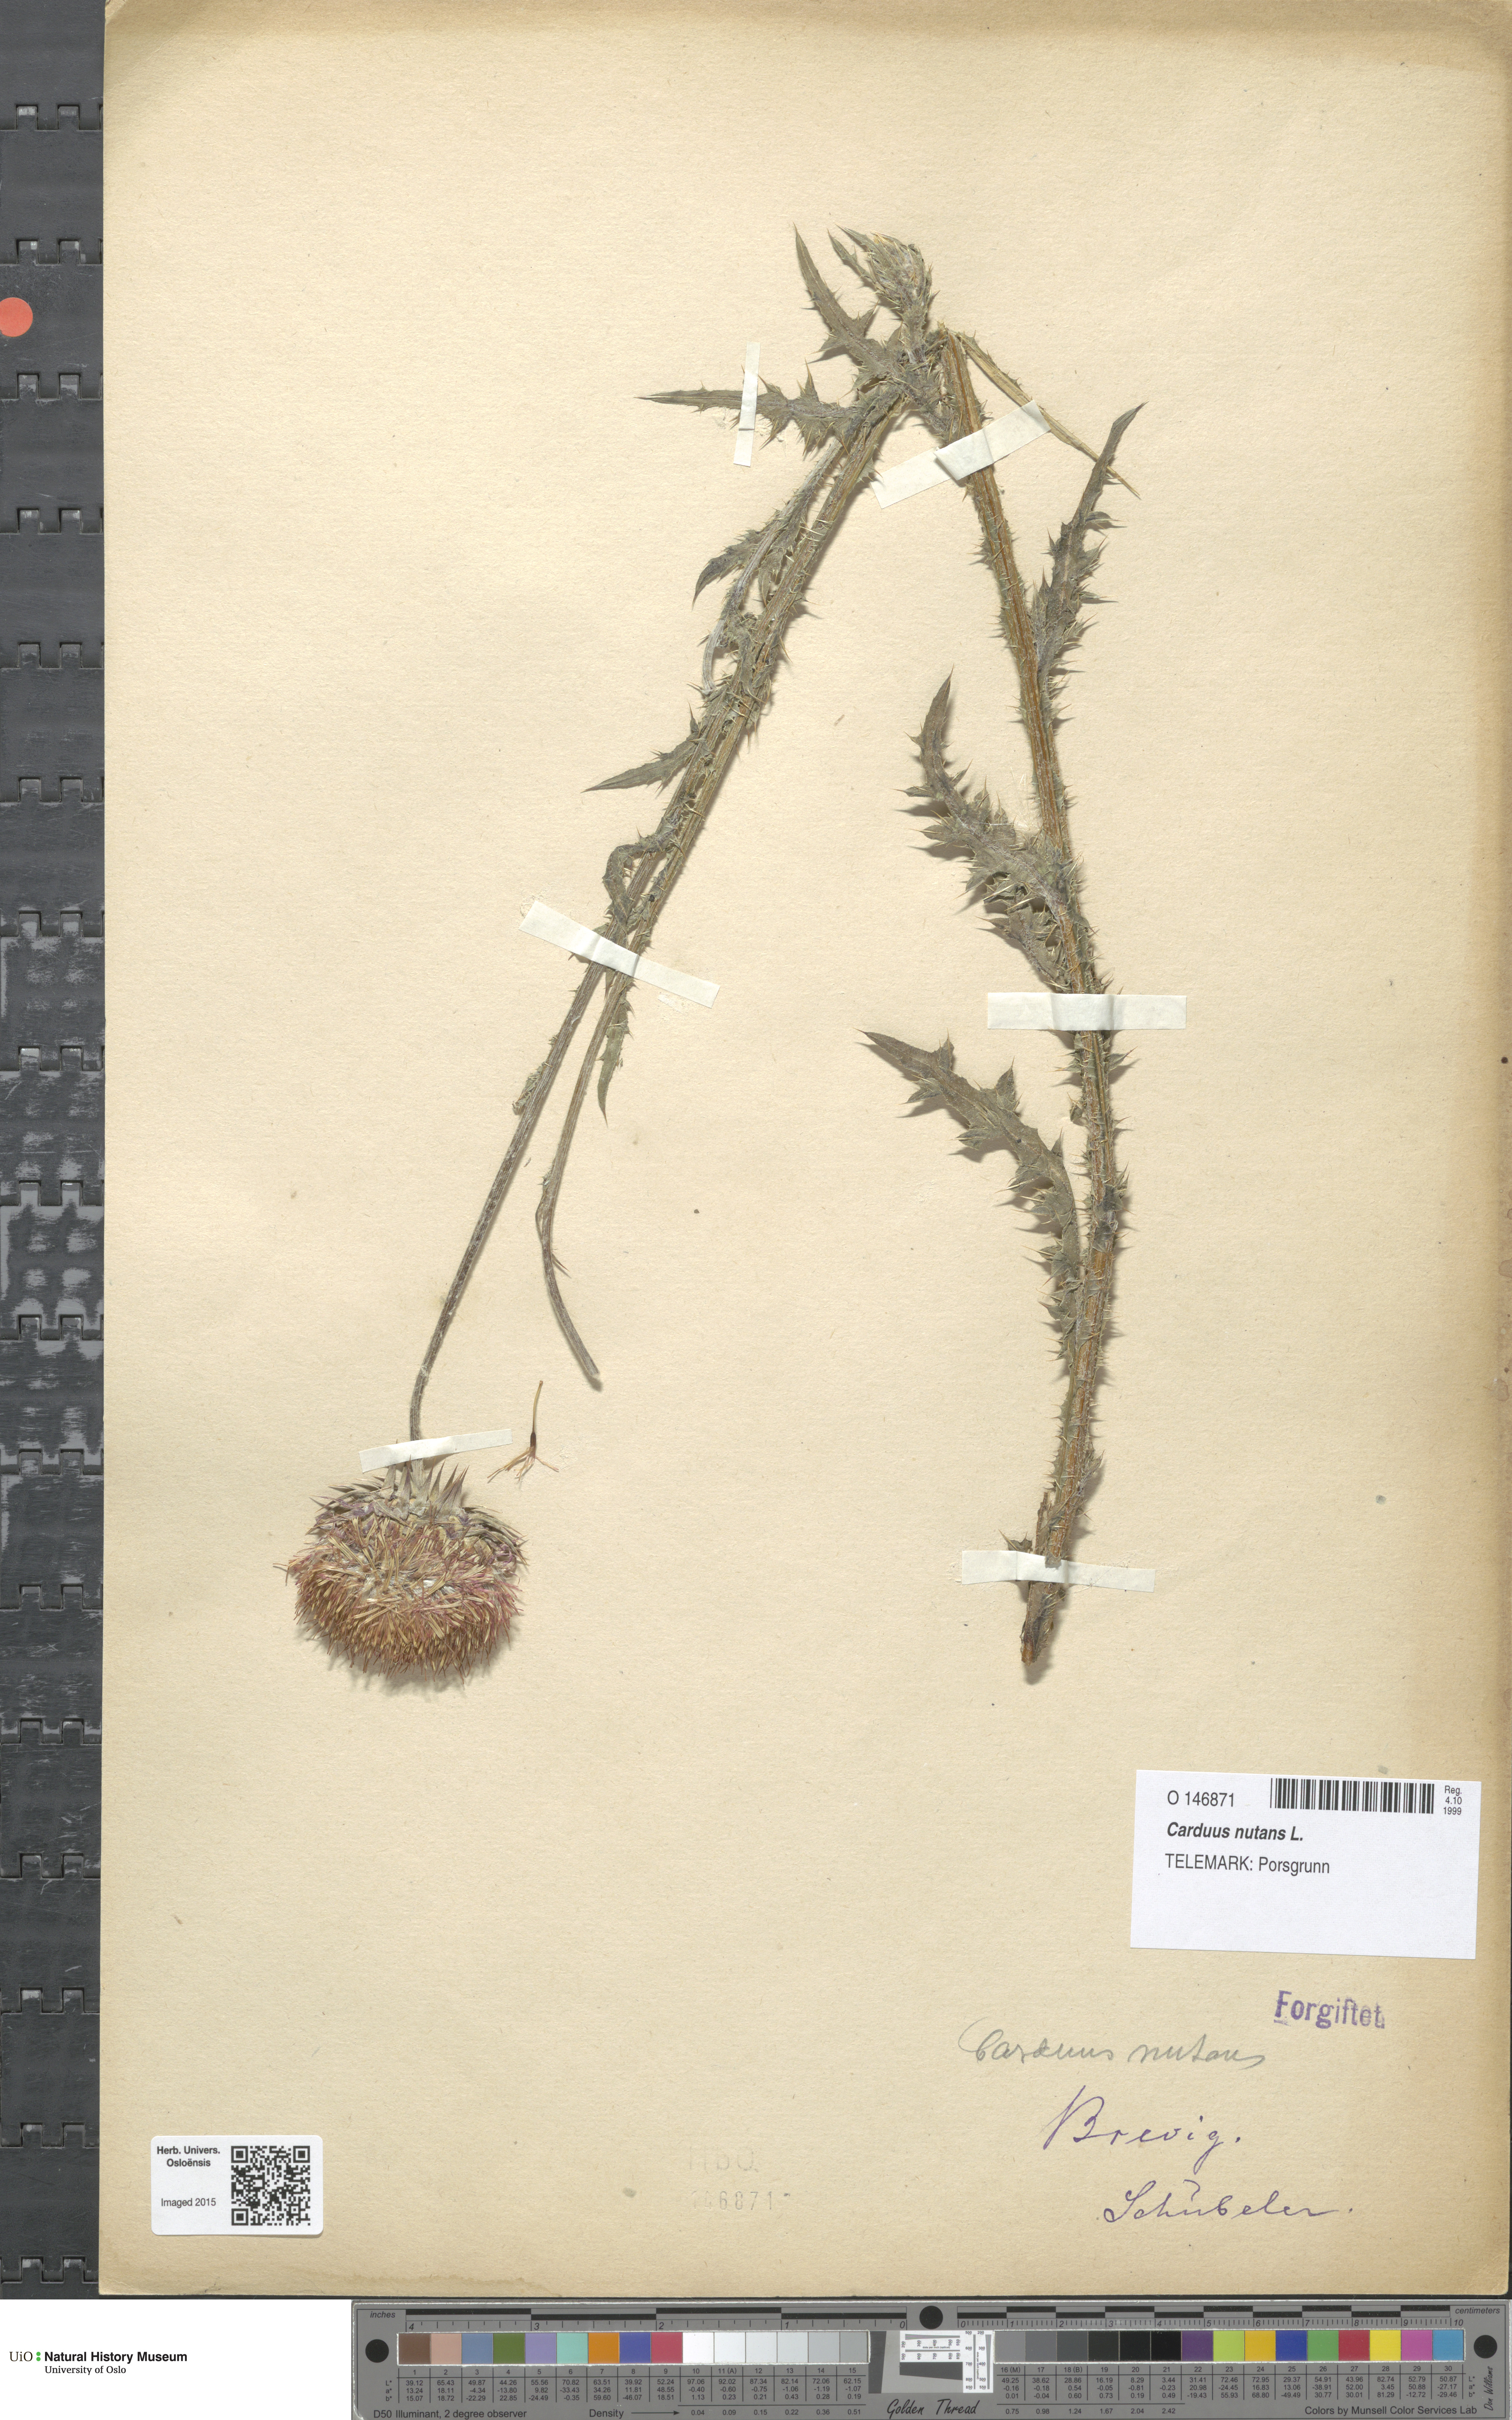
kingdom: Plantae
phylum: Tracheophyta
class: Magnoliopsida
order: Asterales
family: Asteraceae
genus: Carduus
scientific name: Carduus nutans
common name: Musk thistle
